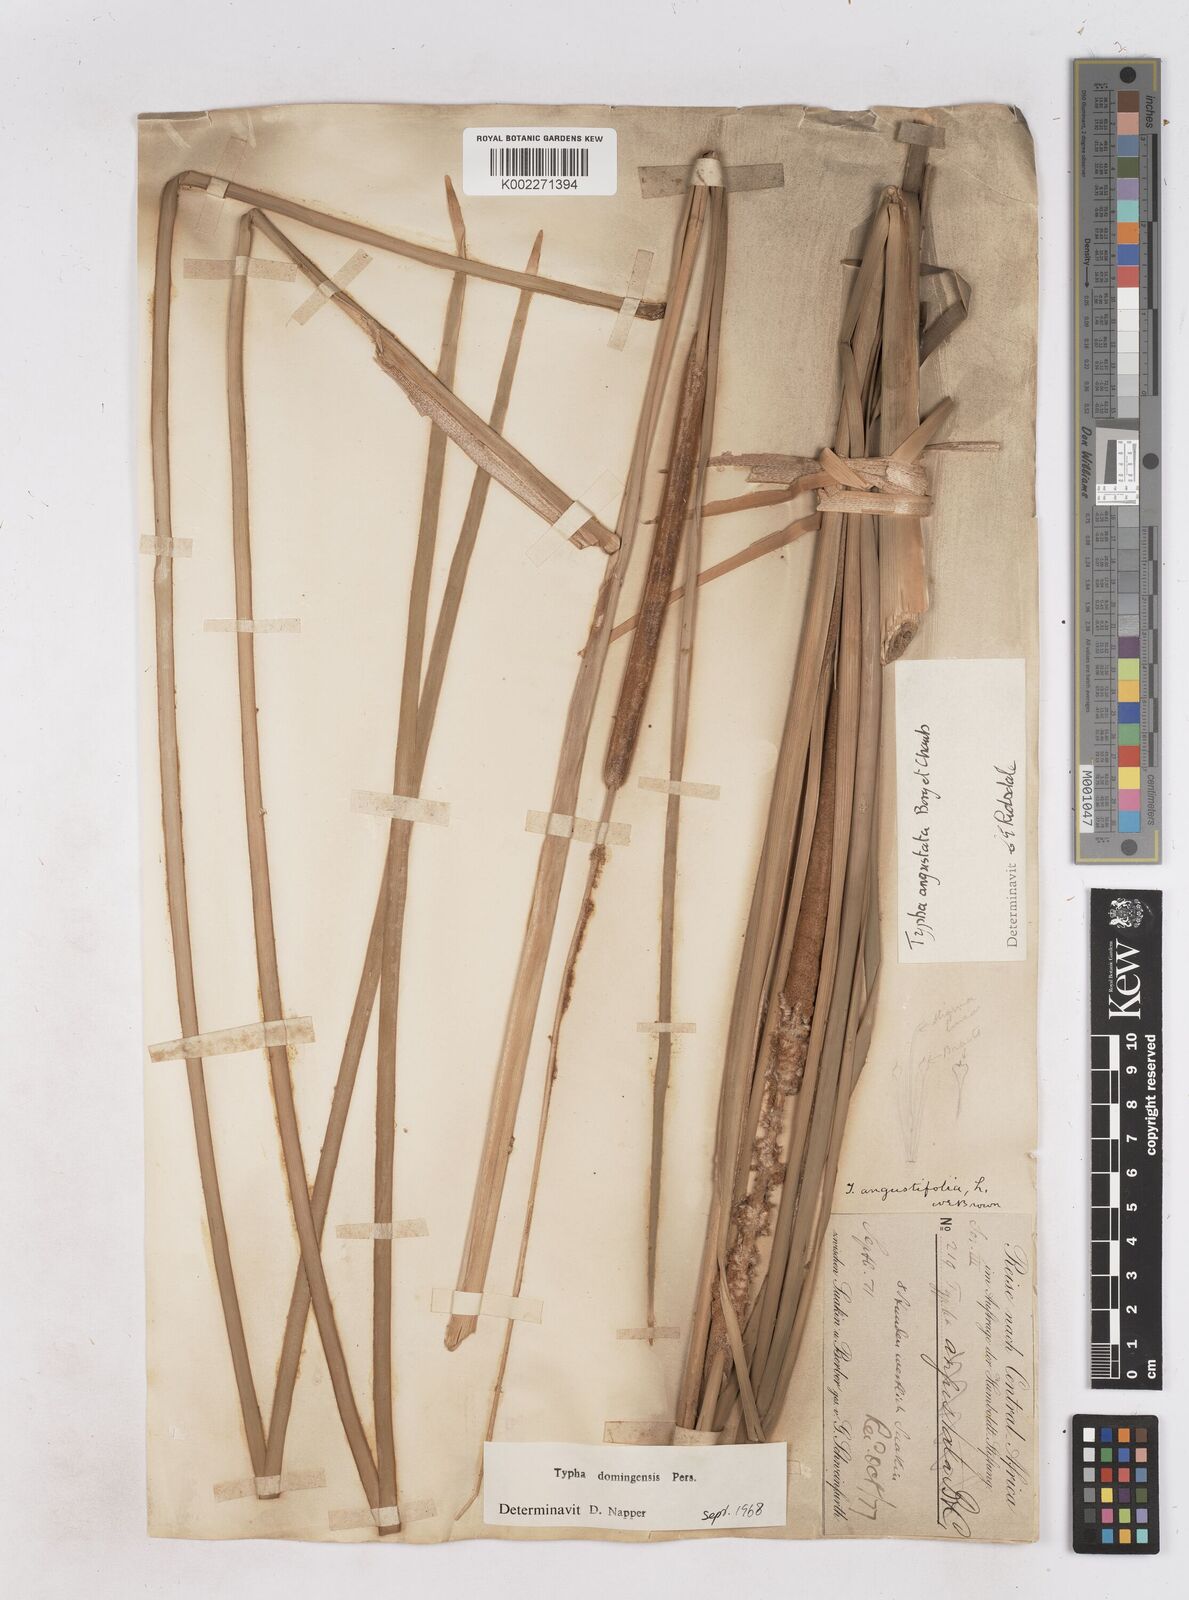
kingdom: Plantae
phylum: Tracheophyta
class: Liliopsida
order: Poales
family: Typhaceae
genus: Typha
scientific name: Typha domingensis
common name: Southern cattail
